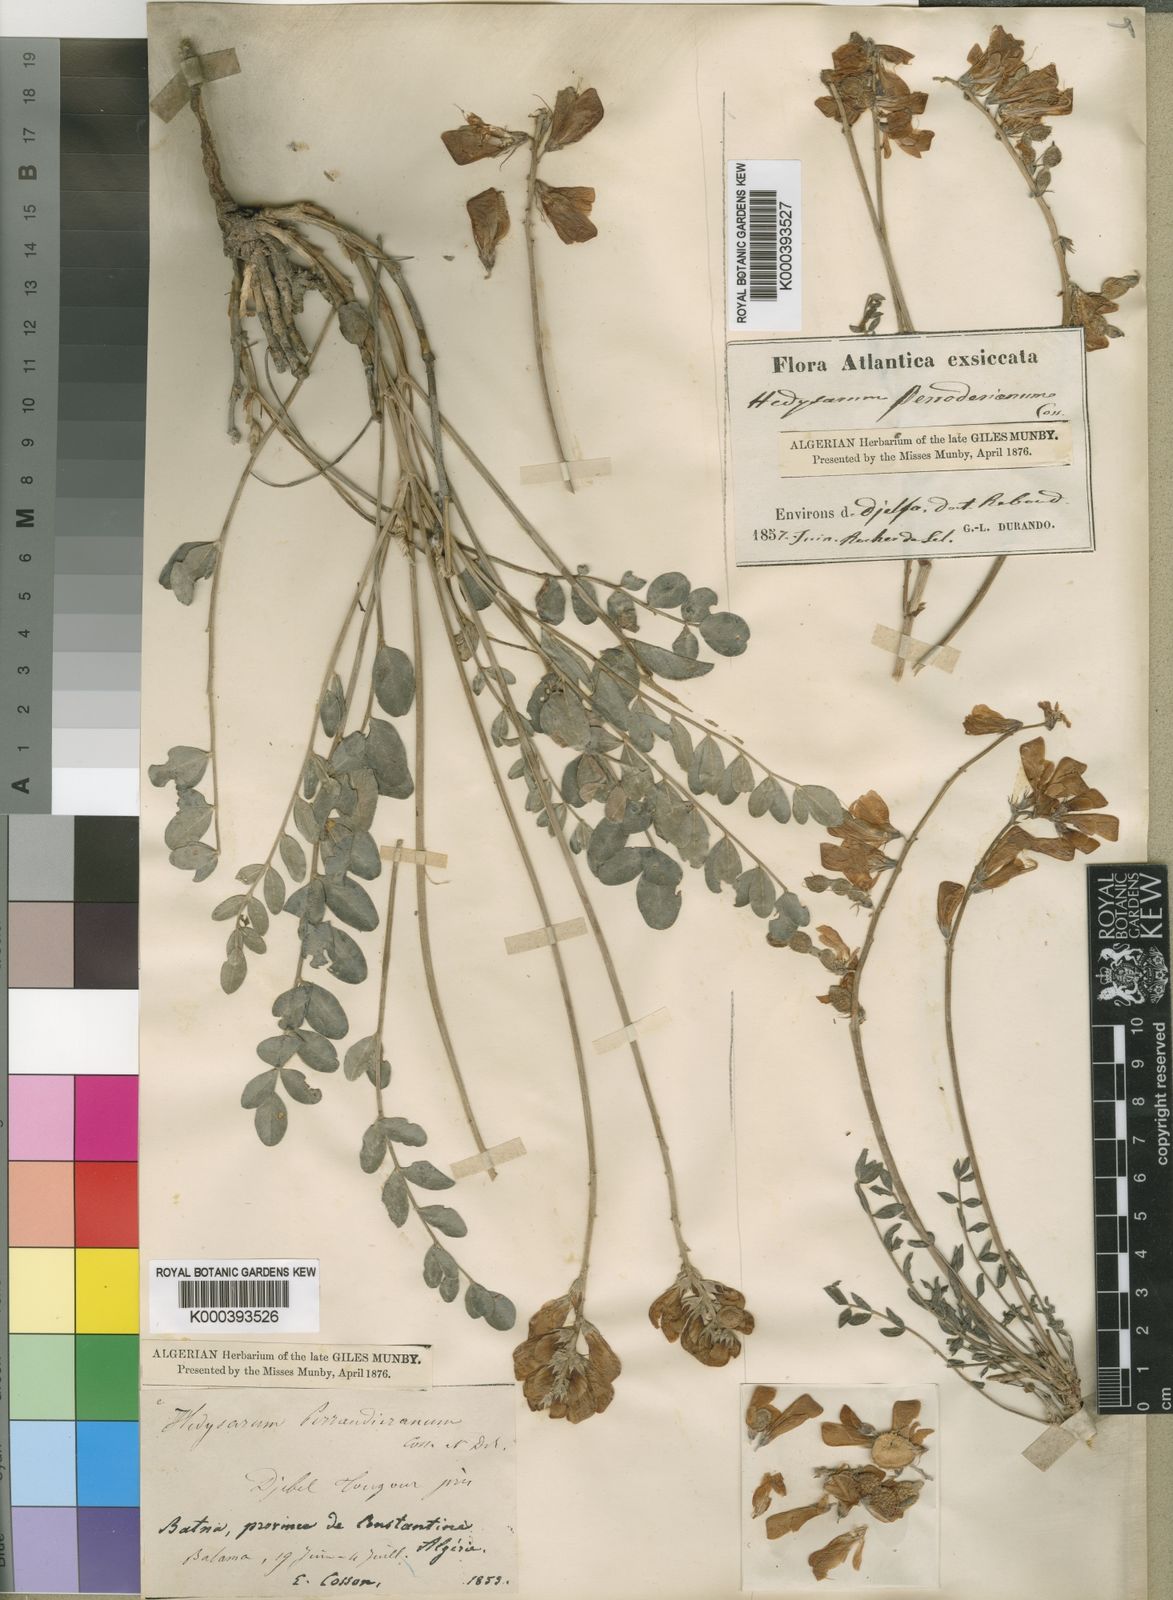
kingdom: Plantae
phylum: Tracheophyta
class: Magnoliopsida
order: Fabales
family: Fabaceae
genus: Hedysarum
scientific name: Hedysarum perrauderianum
